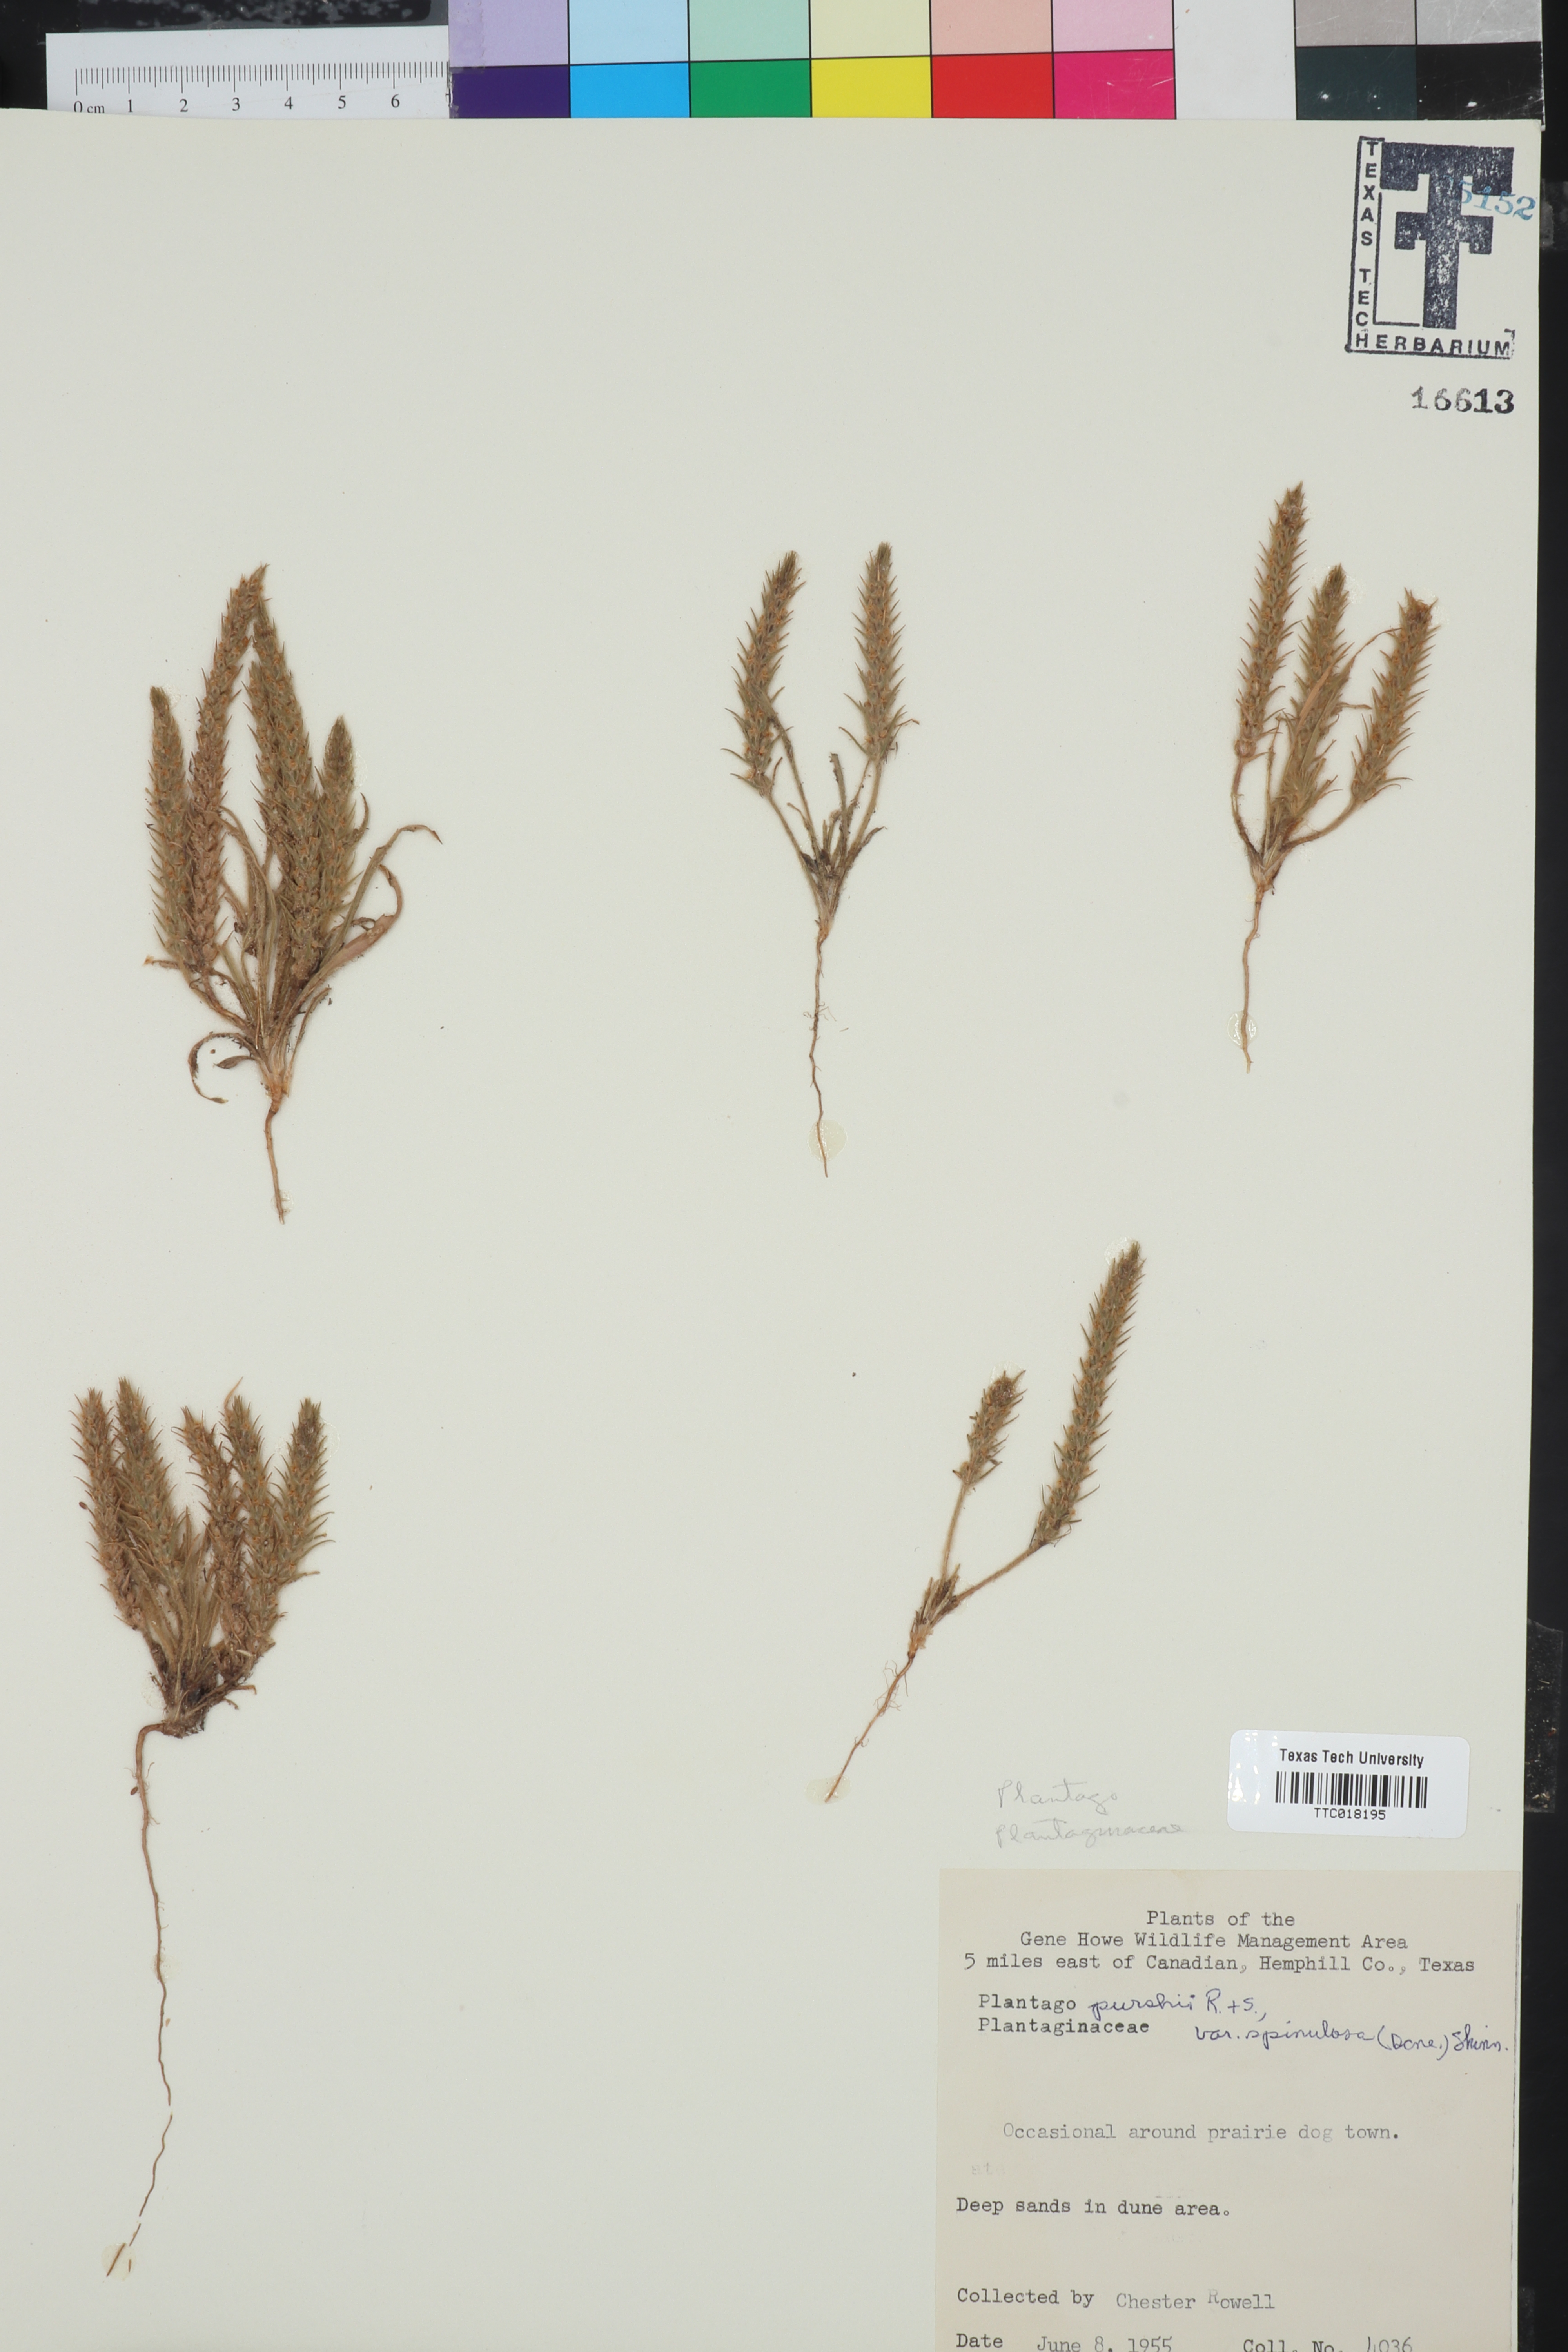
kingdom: Plantae
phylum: Tracheophyta
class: Magnoliopsida
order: Lamiales
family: Plantaginaceae
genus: Plantago
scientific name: Plantago patagonica
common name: Patagonia indian-wheat
